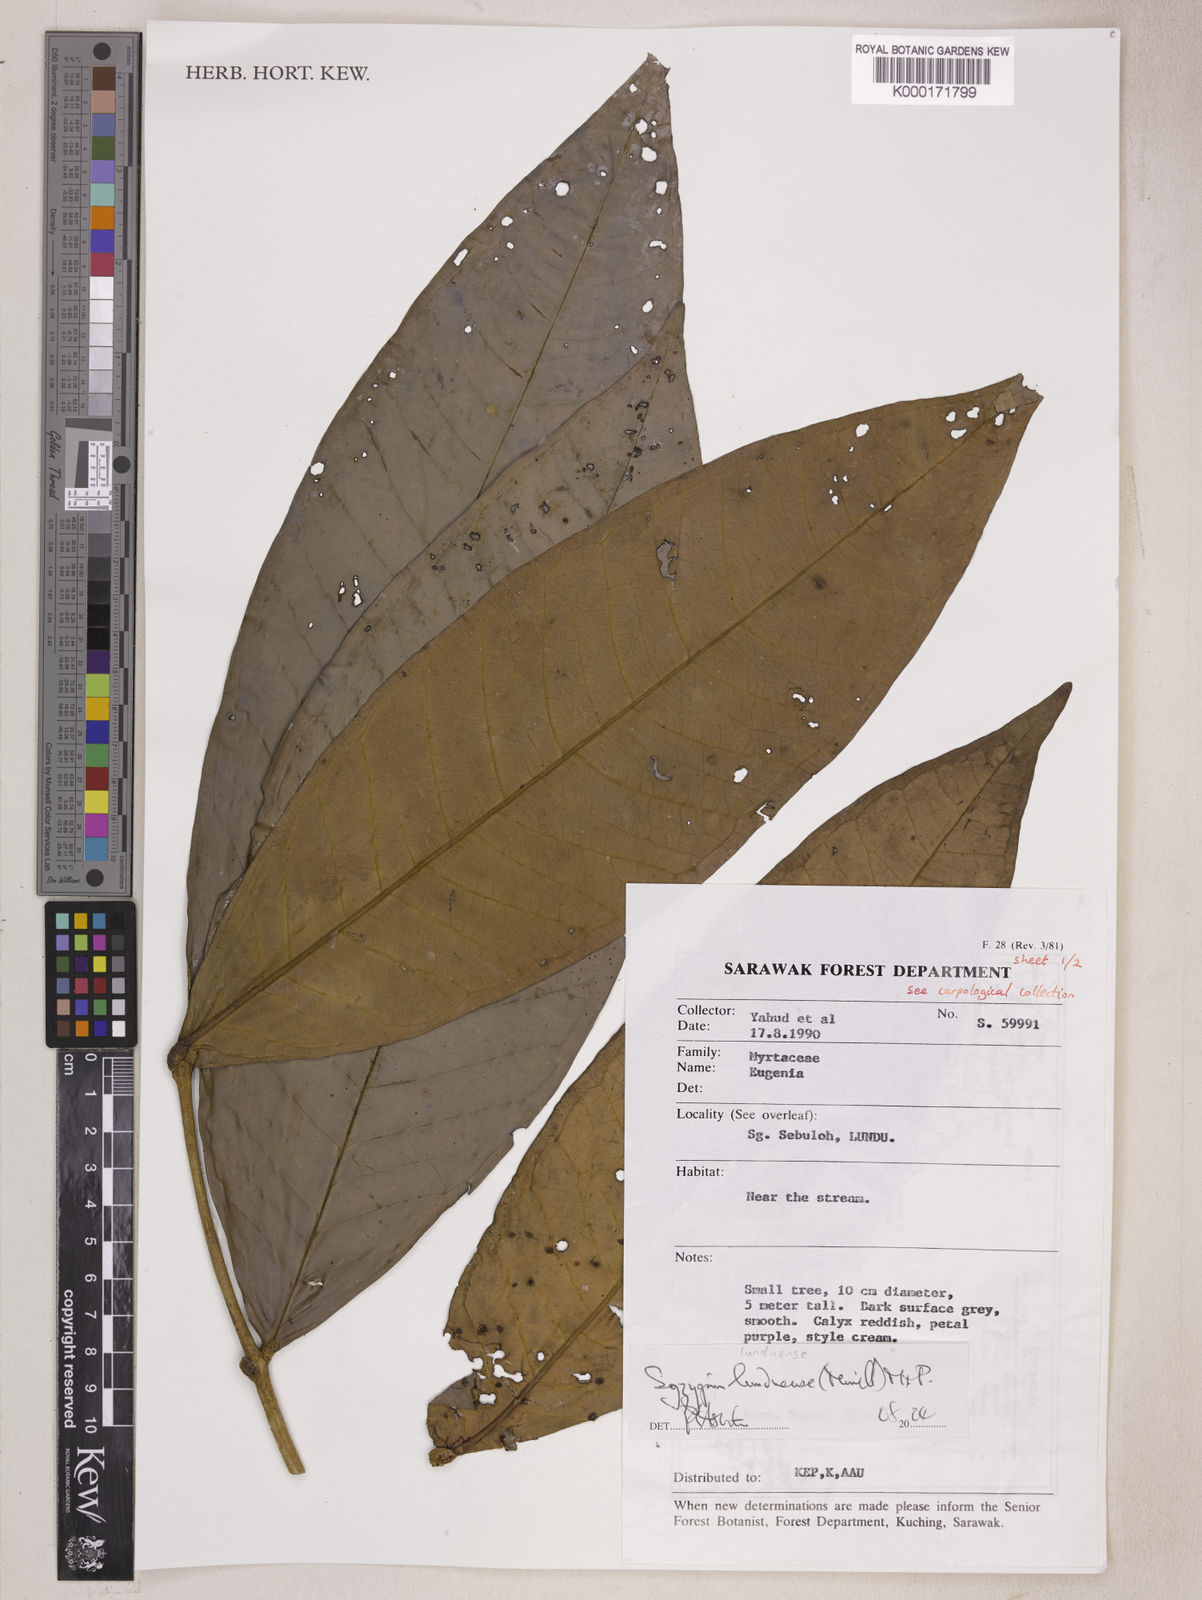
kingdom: Plantae
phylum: Tracheophyta
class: Magnoliopsida
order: Myrtales
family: Myrtaceae
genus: Syzygium
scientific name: Syzygium lunduense
